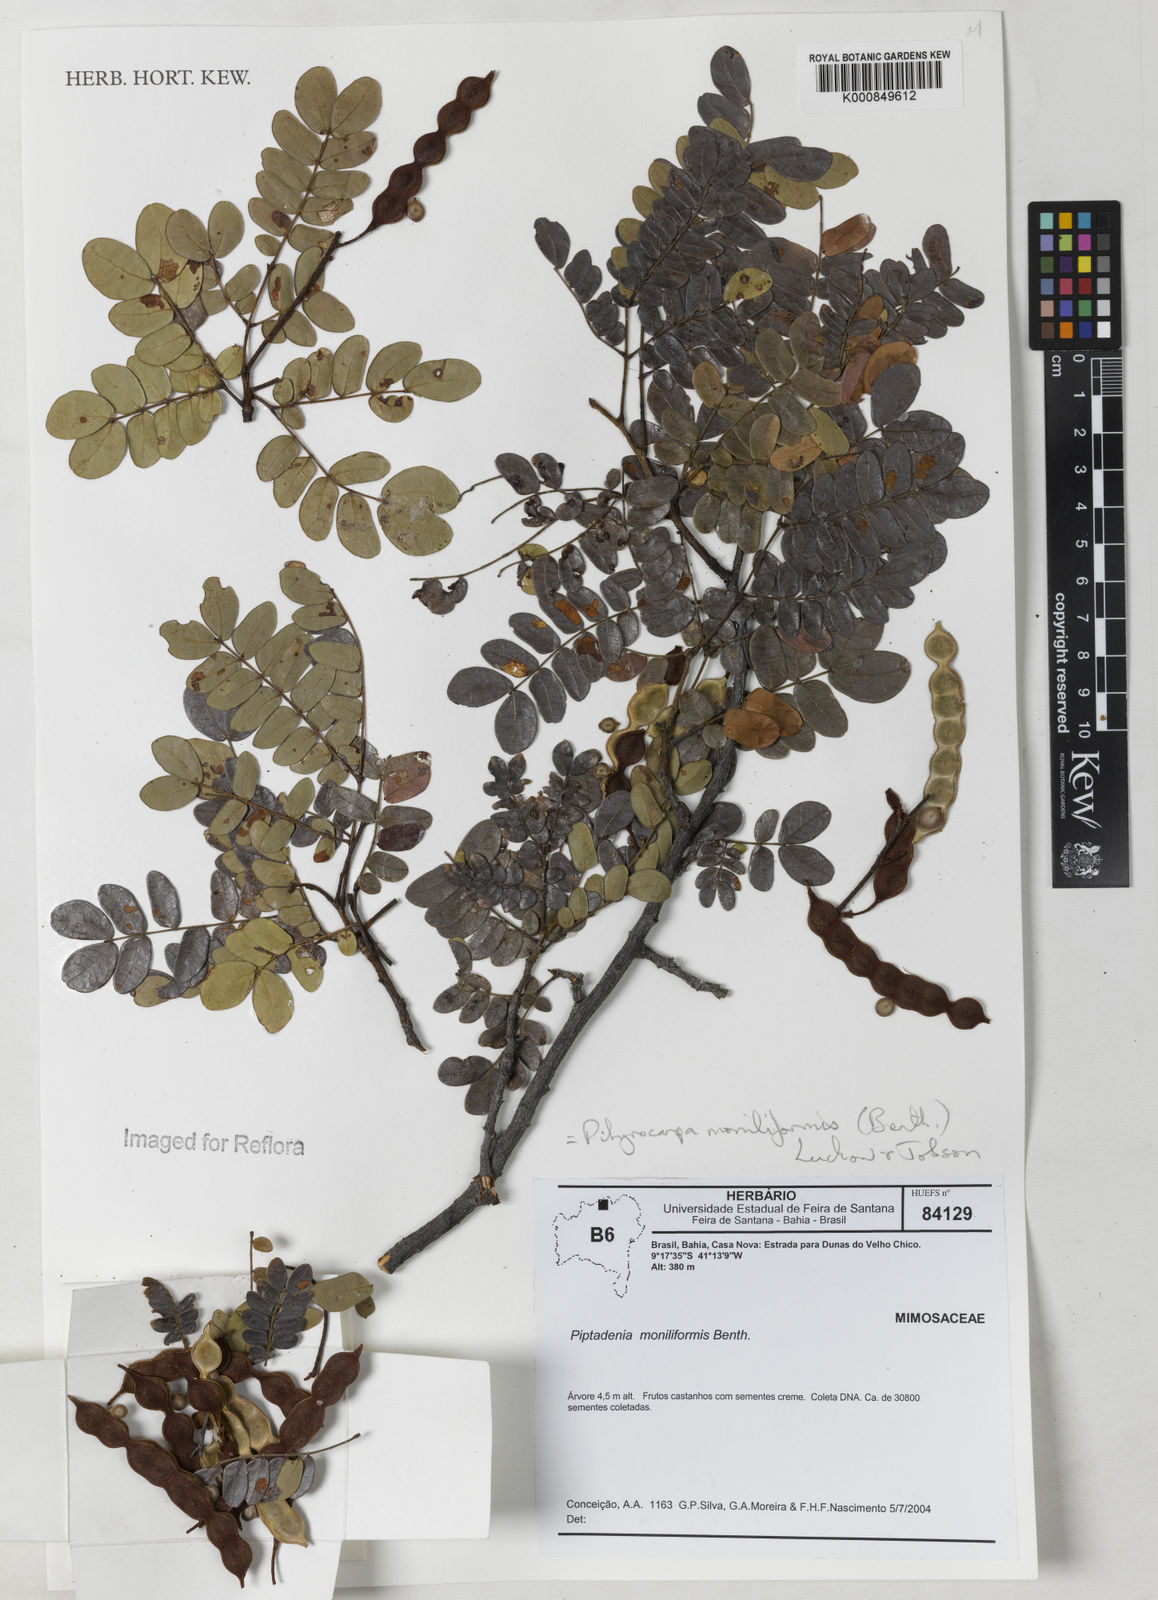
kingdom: Plantae
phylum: Tracheophyta
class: Magnoliopsida
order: Fabales
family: Fabaceae
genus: Pityrocarpa
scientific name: Pityrocarpa moniliformis
